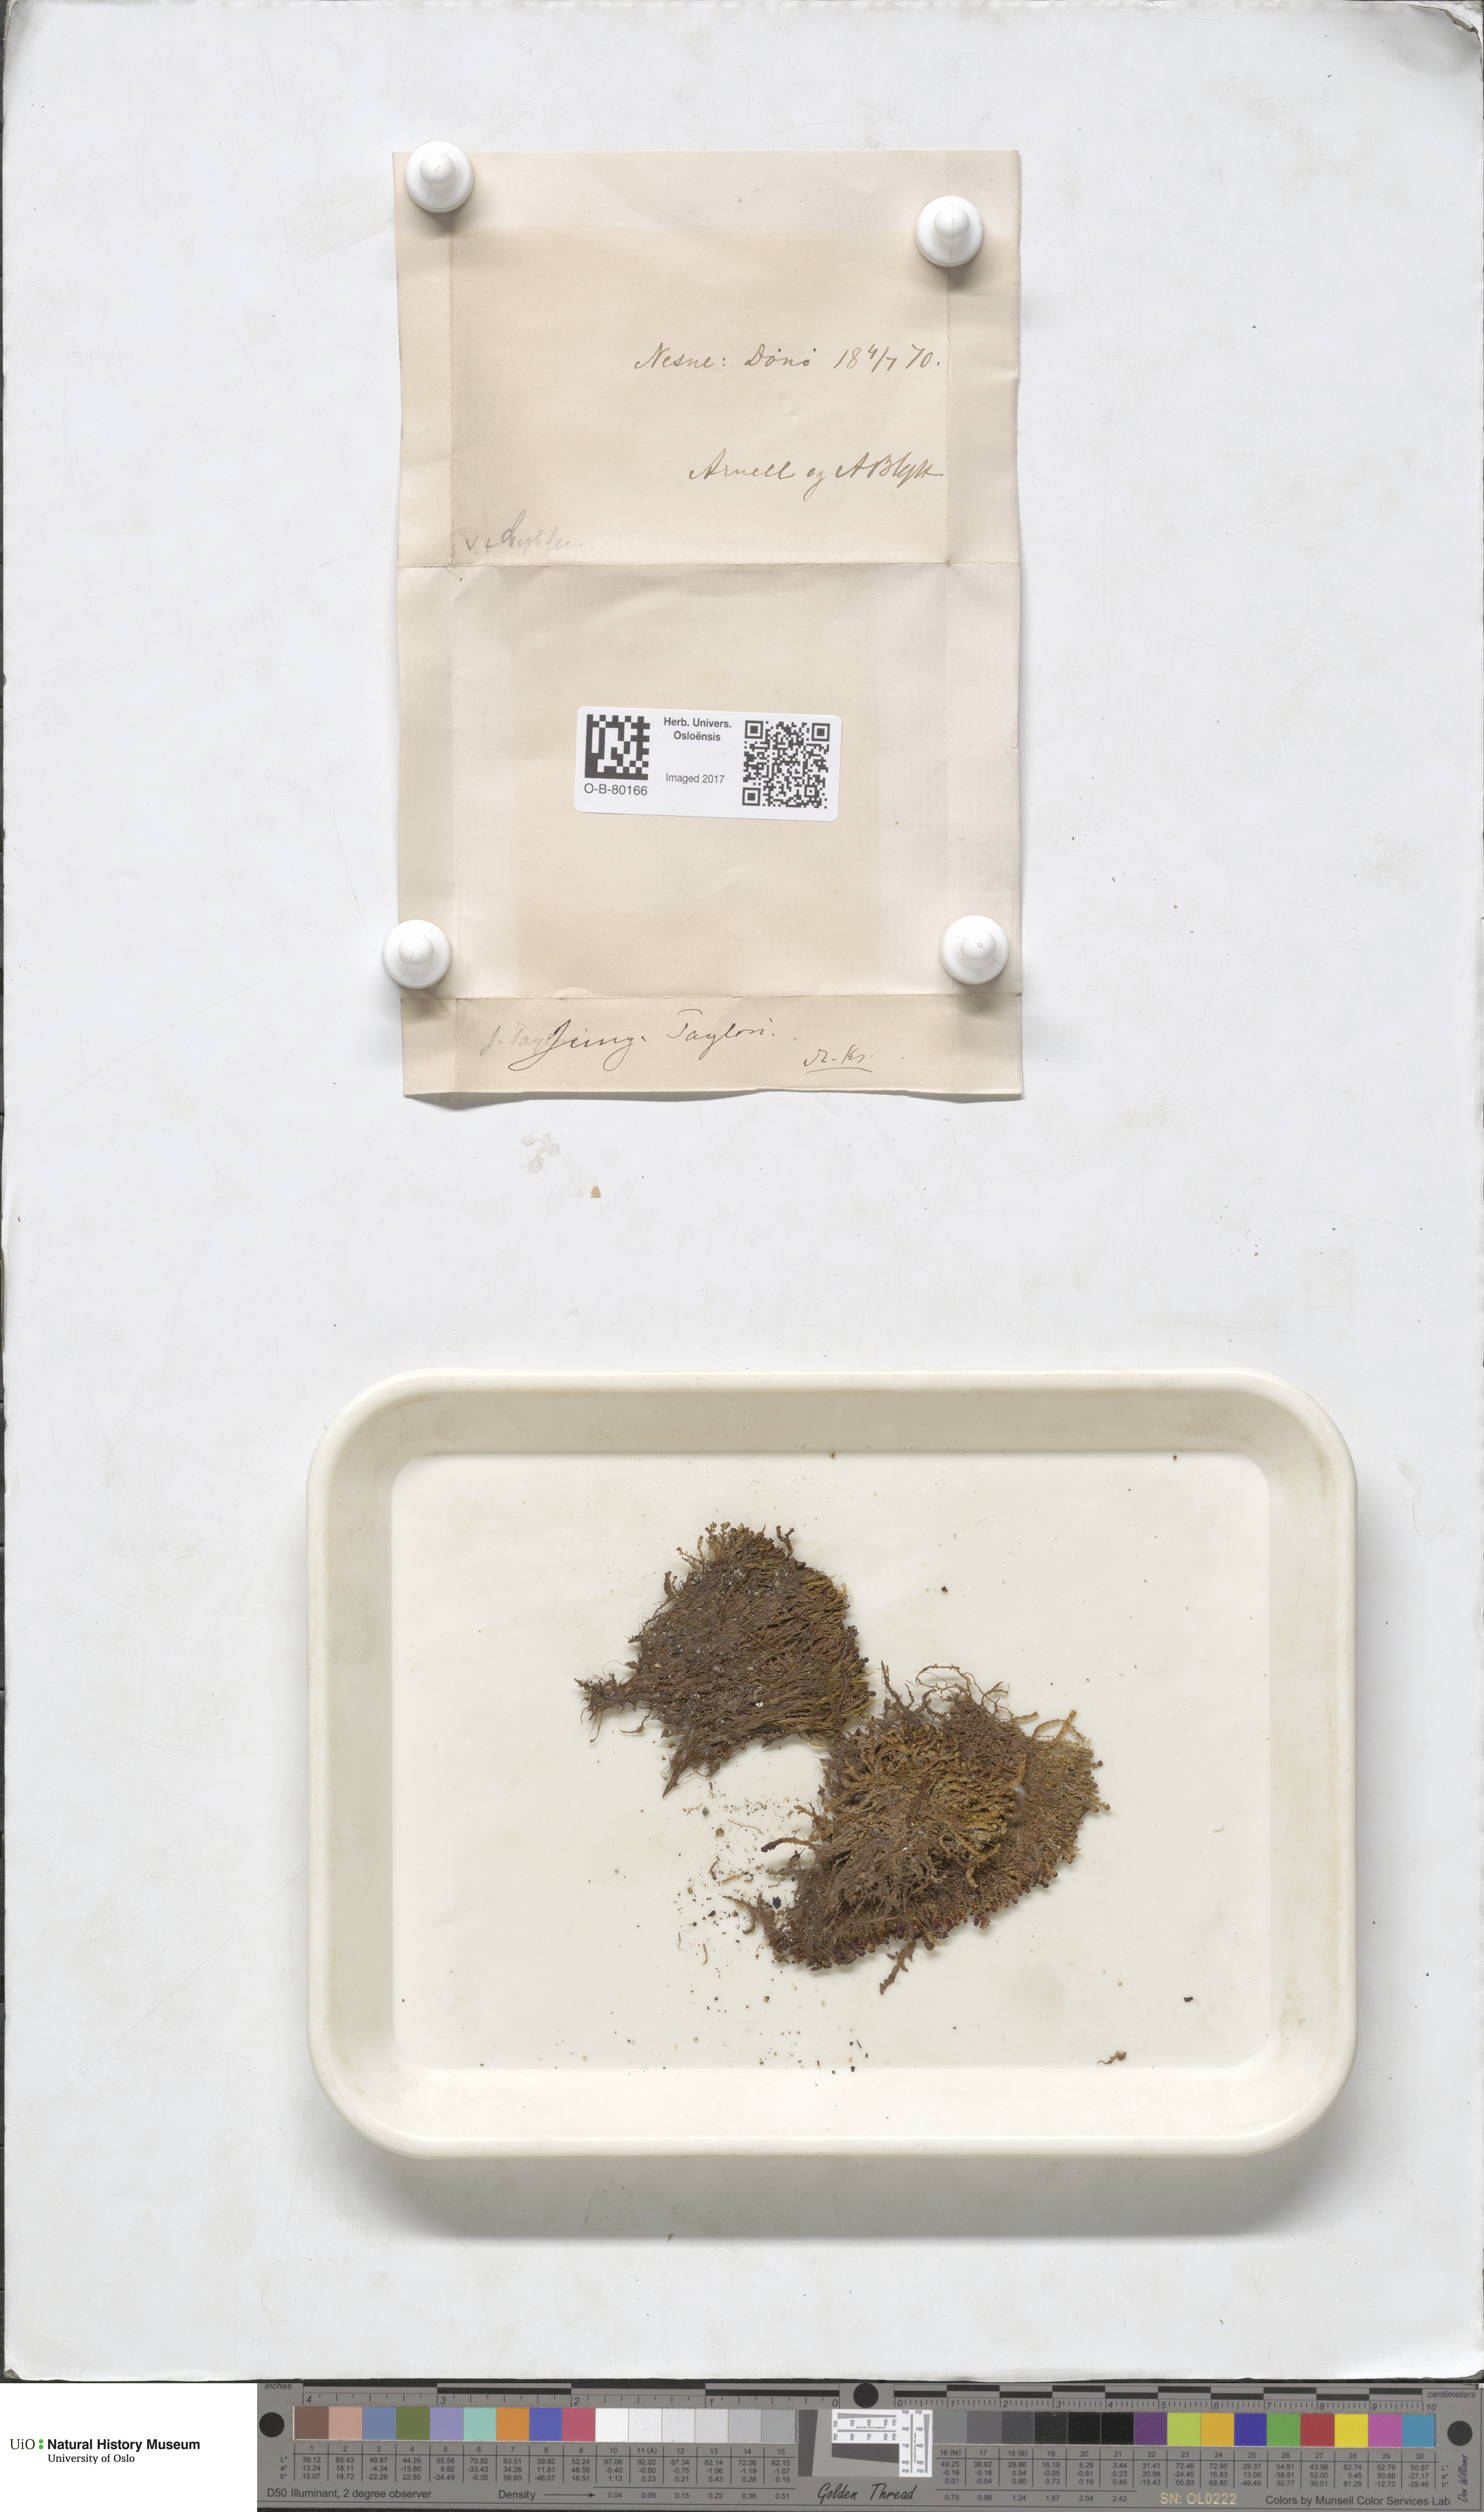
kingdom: Plantae
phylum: Marchantiophyta
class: Jungermanniopsida
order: Jungermanniales
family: Myliaceae
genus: Mylia
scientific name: Mylia taylorii
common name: Taylor s flapwort
